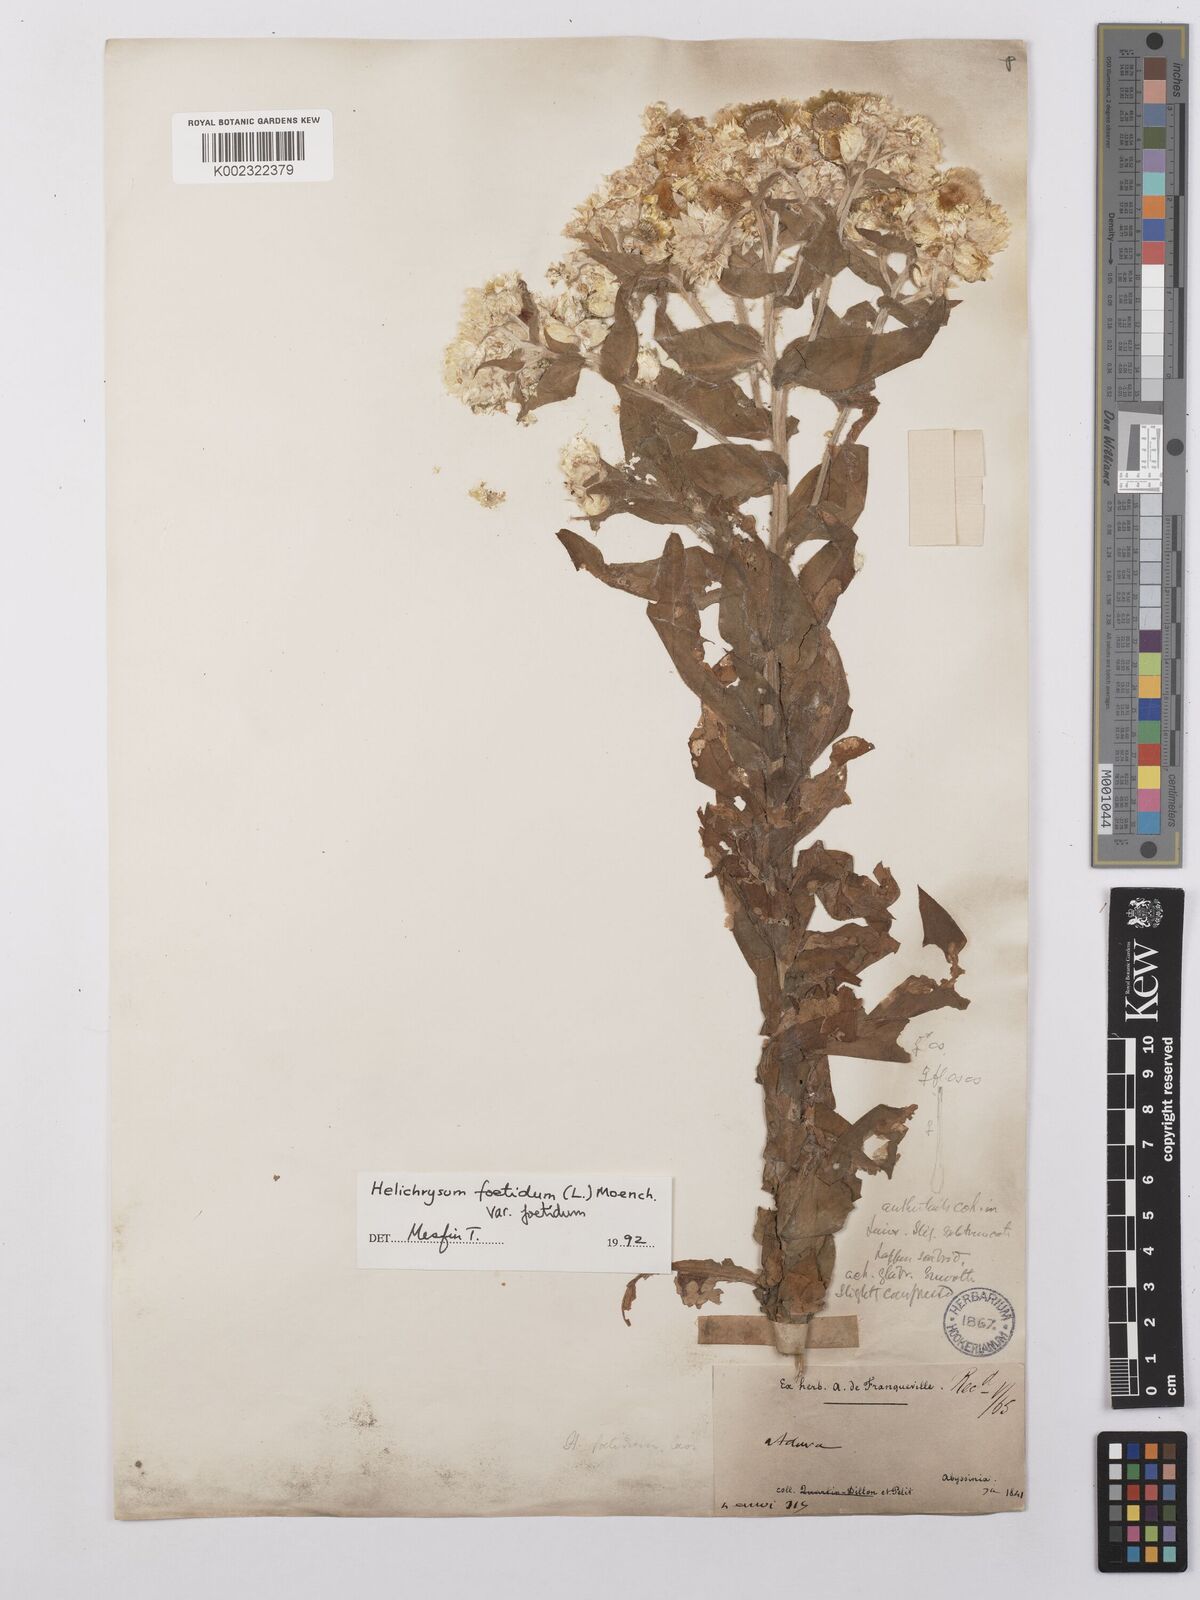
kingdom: Plantae
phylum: Tracheophyta
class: Magnoliopsida
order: Asterales
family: Asteraceae
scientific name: Asteraceae
